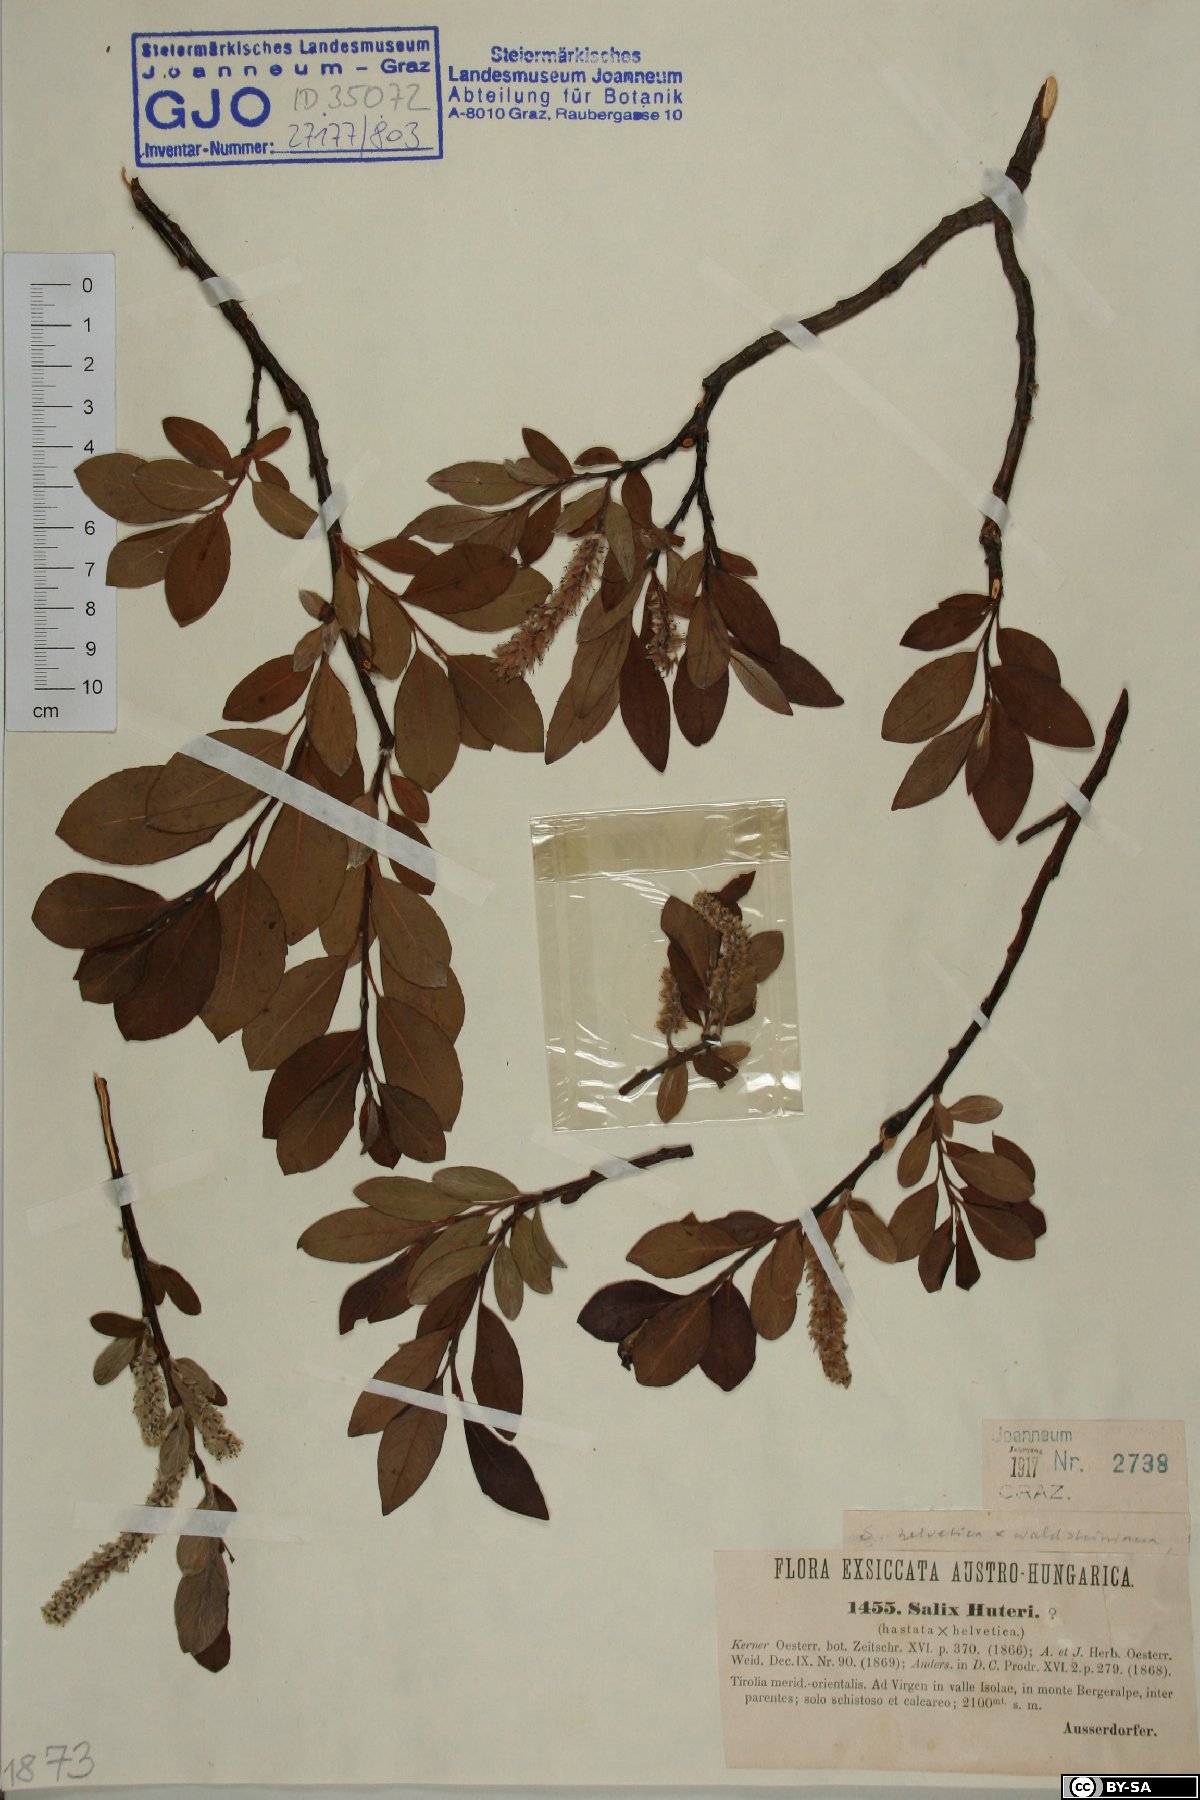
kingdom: Plantae
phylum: Tracheophyta
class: Magnoliopsida
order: Malpighiales
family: Salicaceae
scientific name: Salicaceae
